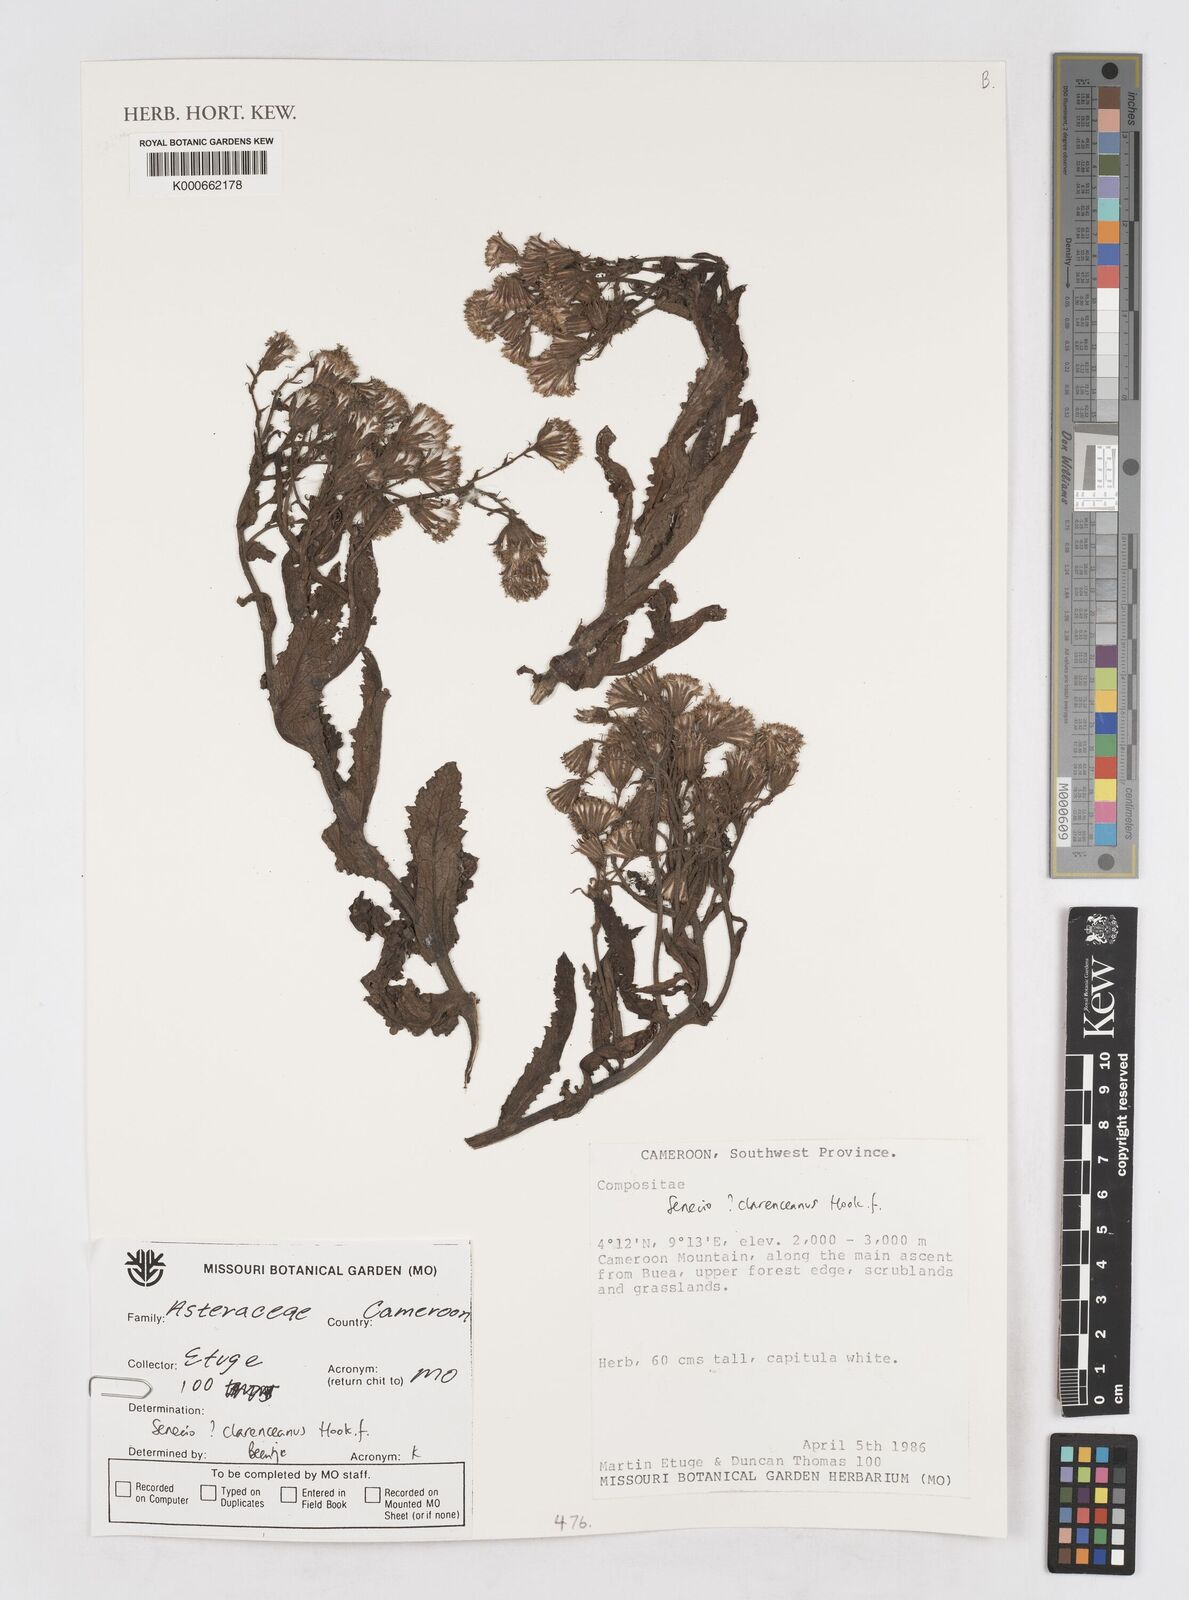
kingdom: Plantae
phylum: Tracheophyta
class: Magnoliopsida
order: Asterales
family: Asteraceae
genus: Senecio
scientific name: Senecio purpureus
